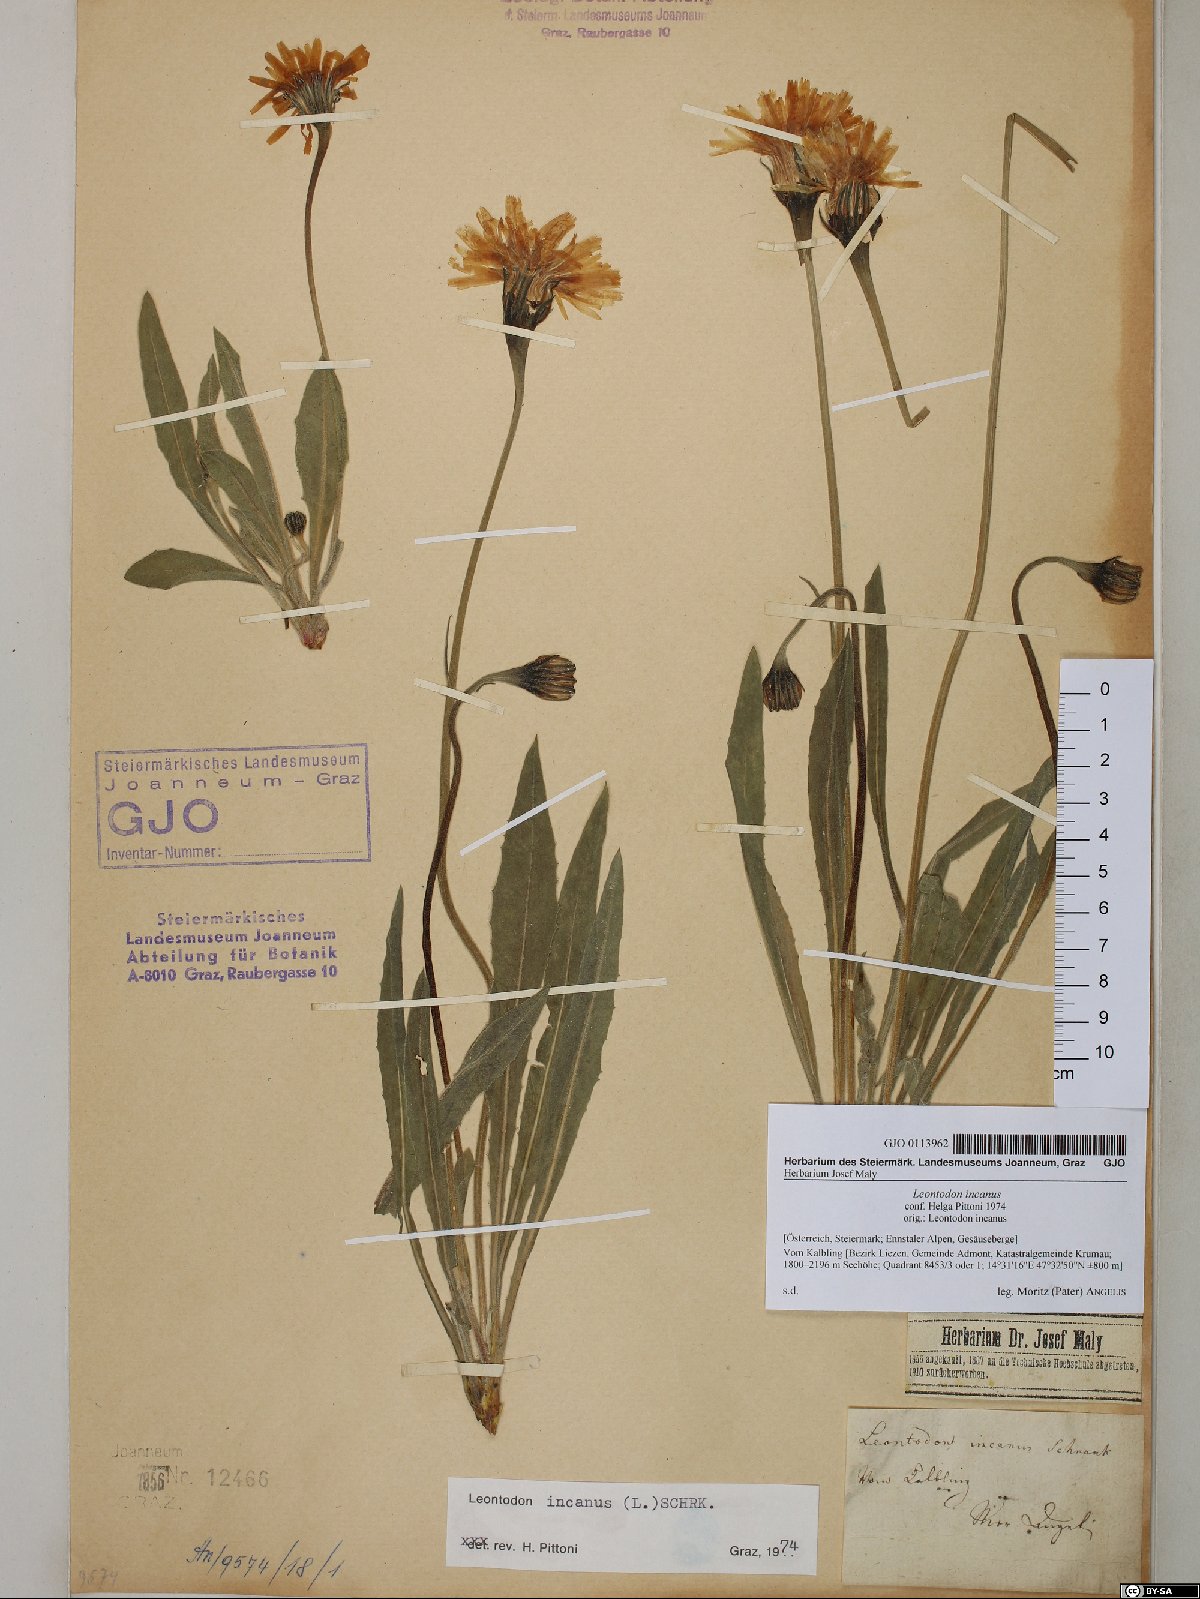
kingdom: Plantae
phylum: Tracheophyta
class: Magnoliopsida
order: Asterales
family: Asteraceae
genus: Leontodon
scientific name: Leontodon incanus
